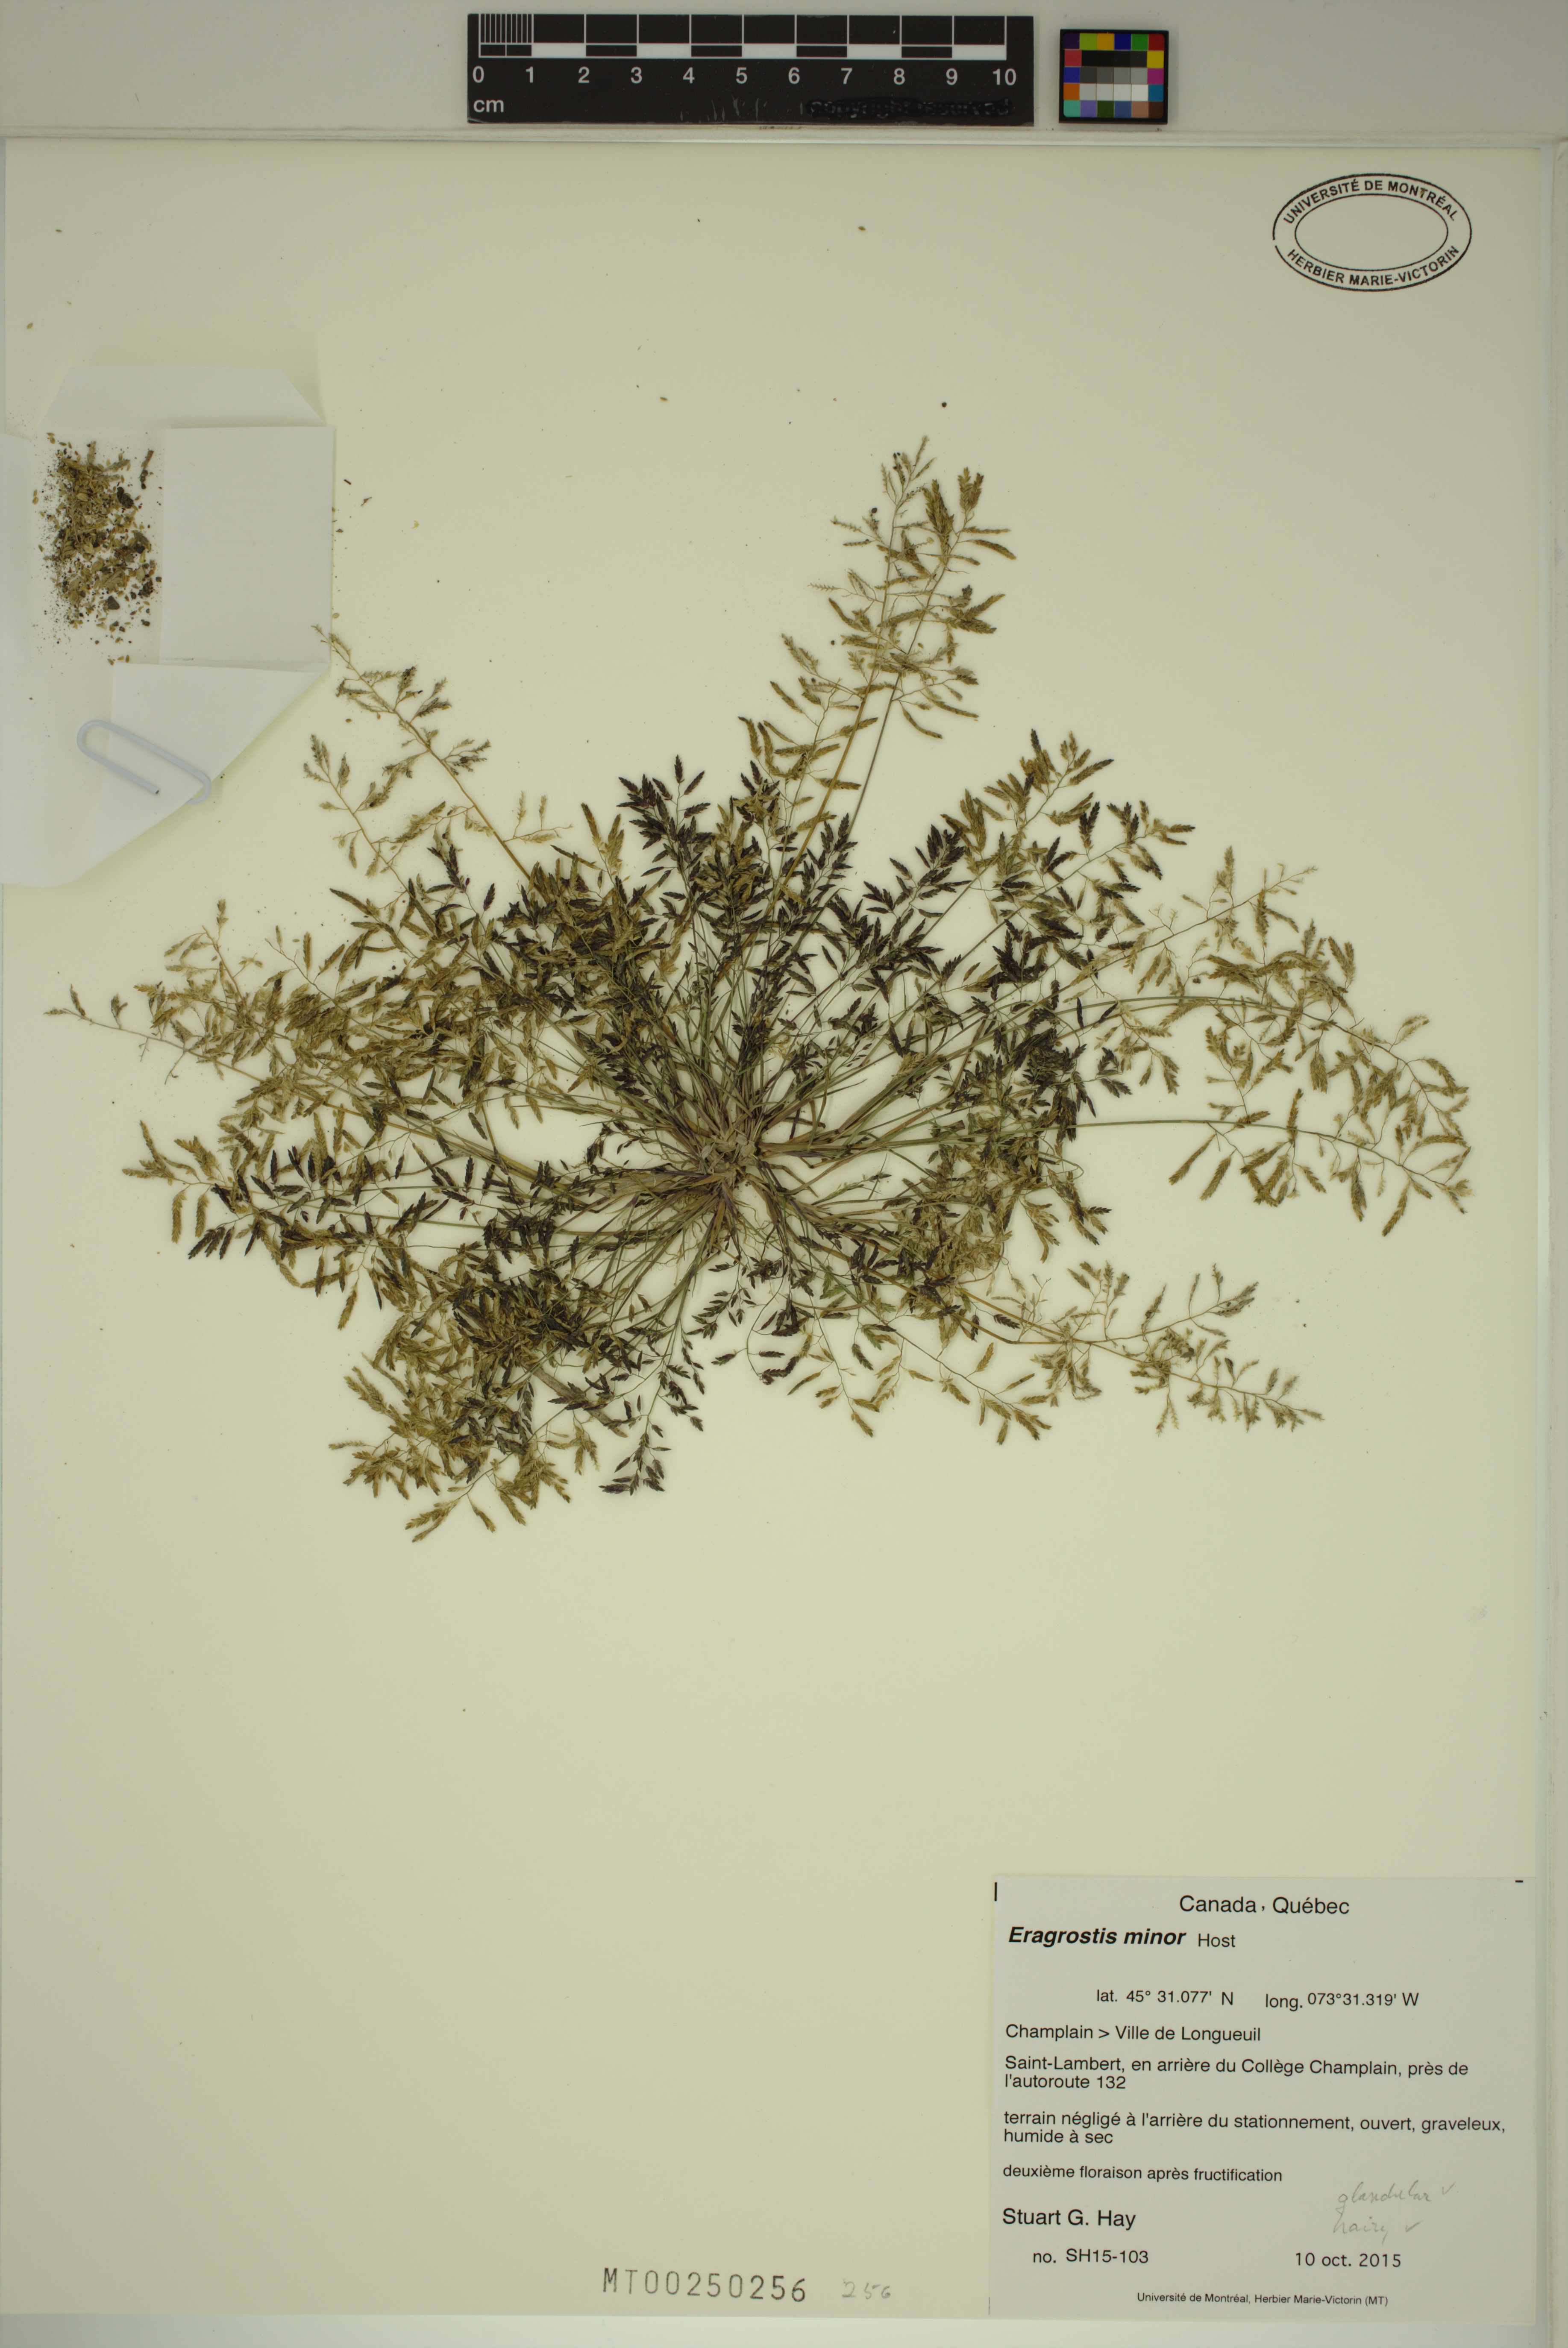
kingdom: Plantae
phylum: Tracheophyta
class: Liliopsida
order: Poales
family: Poaceae
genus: Eragrostis
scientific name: Eragrostis minor
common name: Small love-grass
